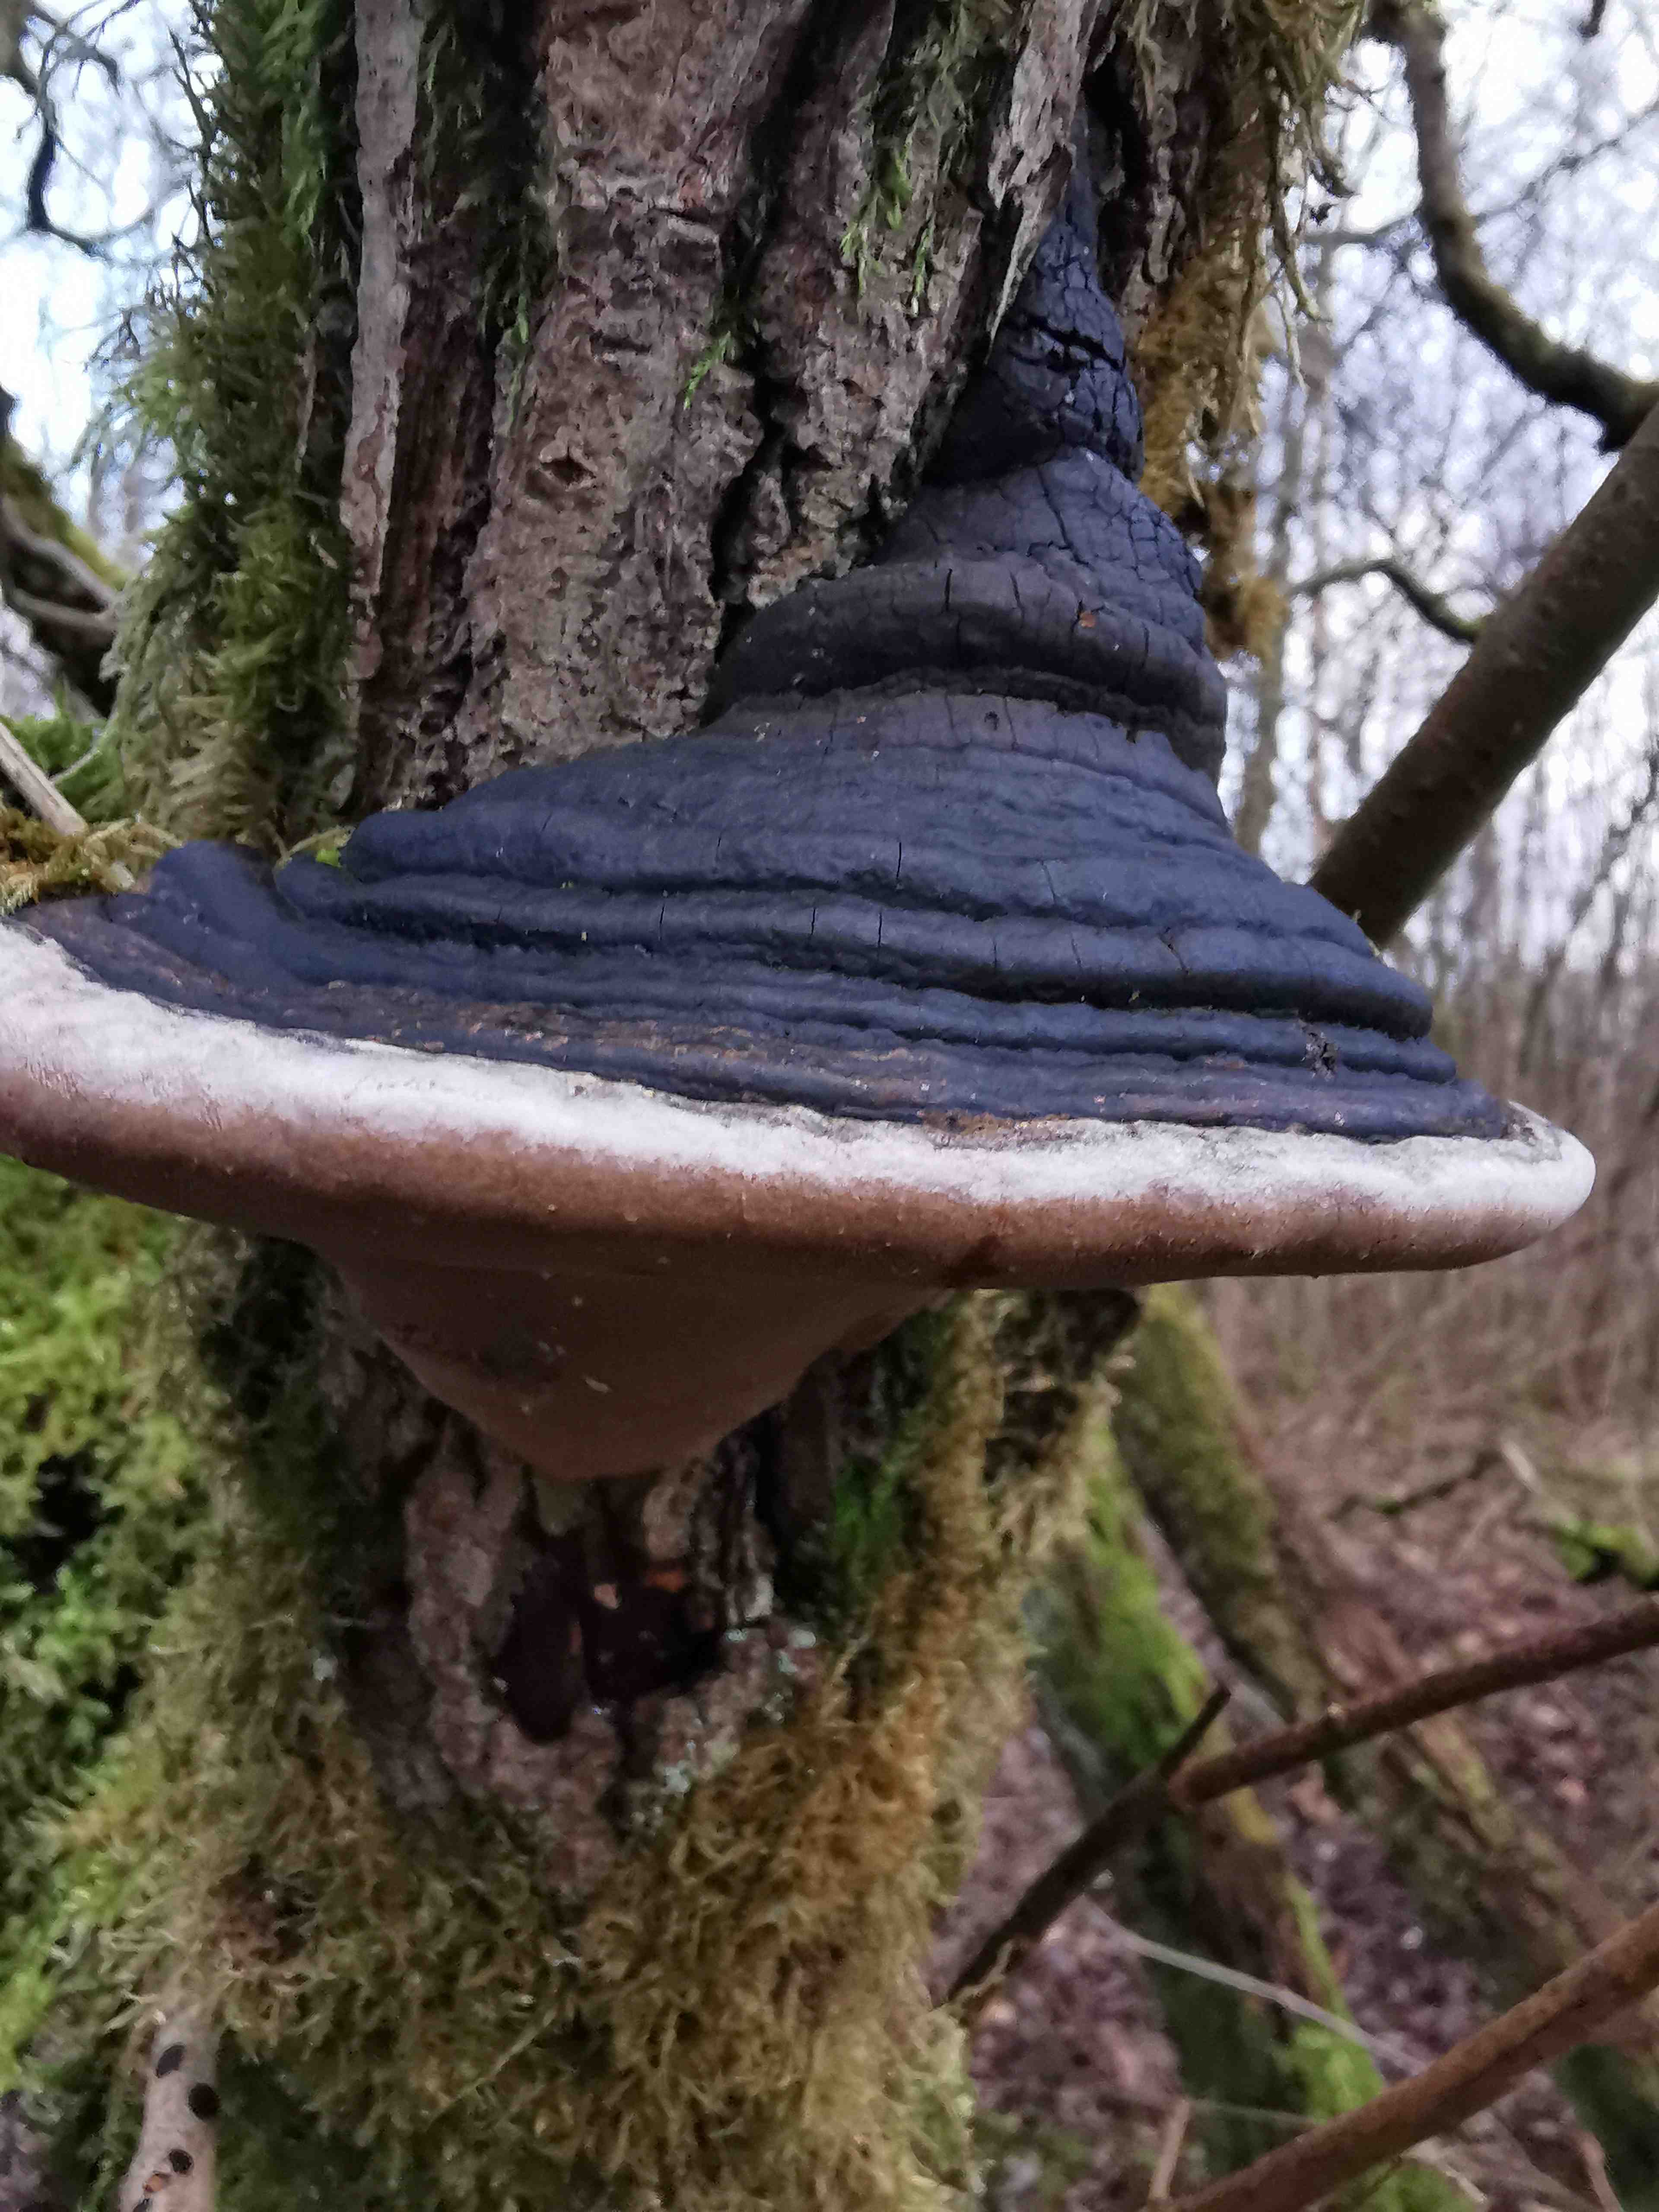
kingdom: Fungi
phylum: Basidiomycota
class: Agaricomycetes
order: Hymenochaetales
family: Hymenochaetaceae
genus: Phellinus
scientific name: Phellinus igniarius
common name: almindelig ildporesvamp
